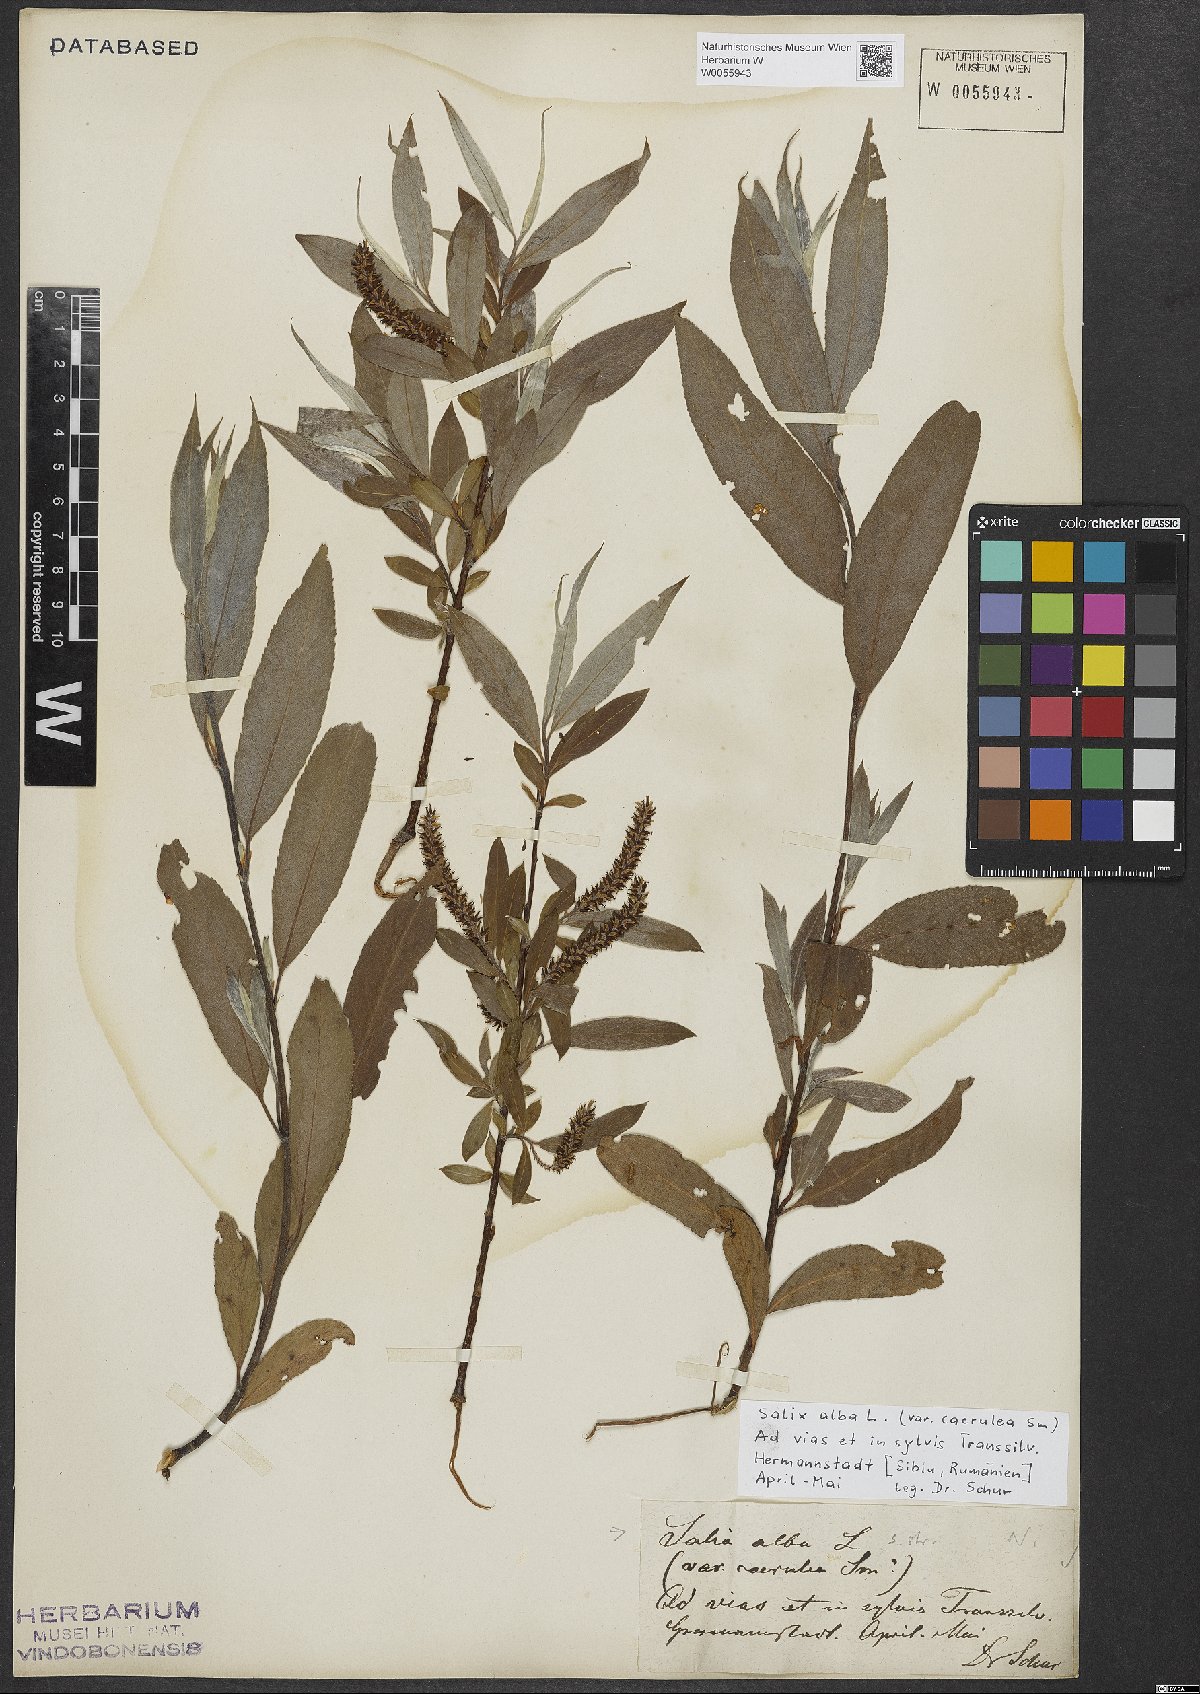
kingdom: Plantae
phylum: Tracheophyta
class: Magnoliopsida
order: Malpighiales
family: Salicaceae
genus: Salix
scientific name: Salix alba
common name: White willow
